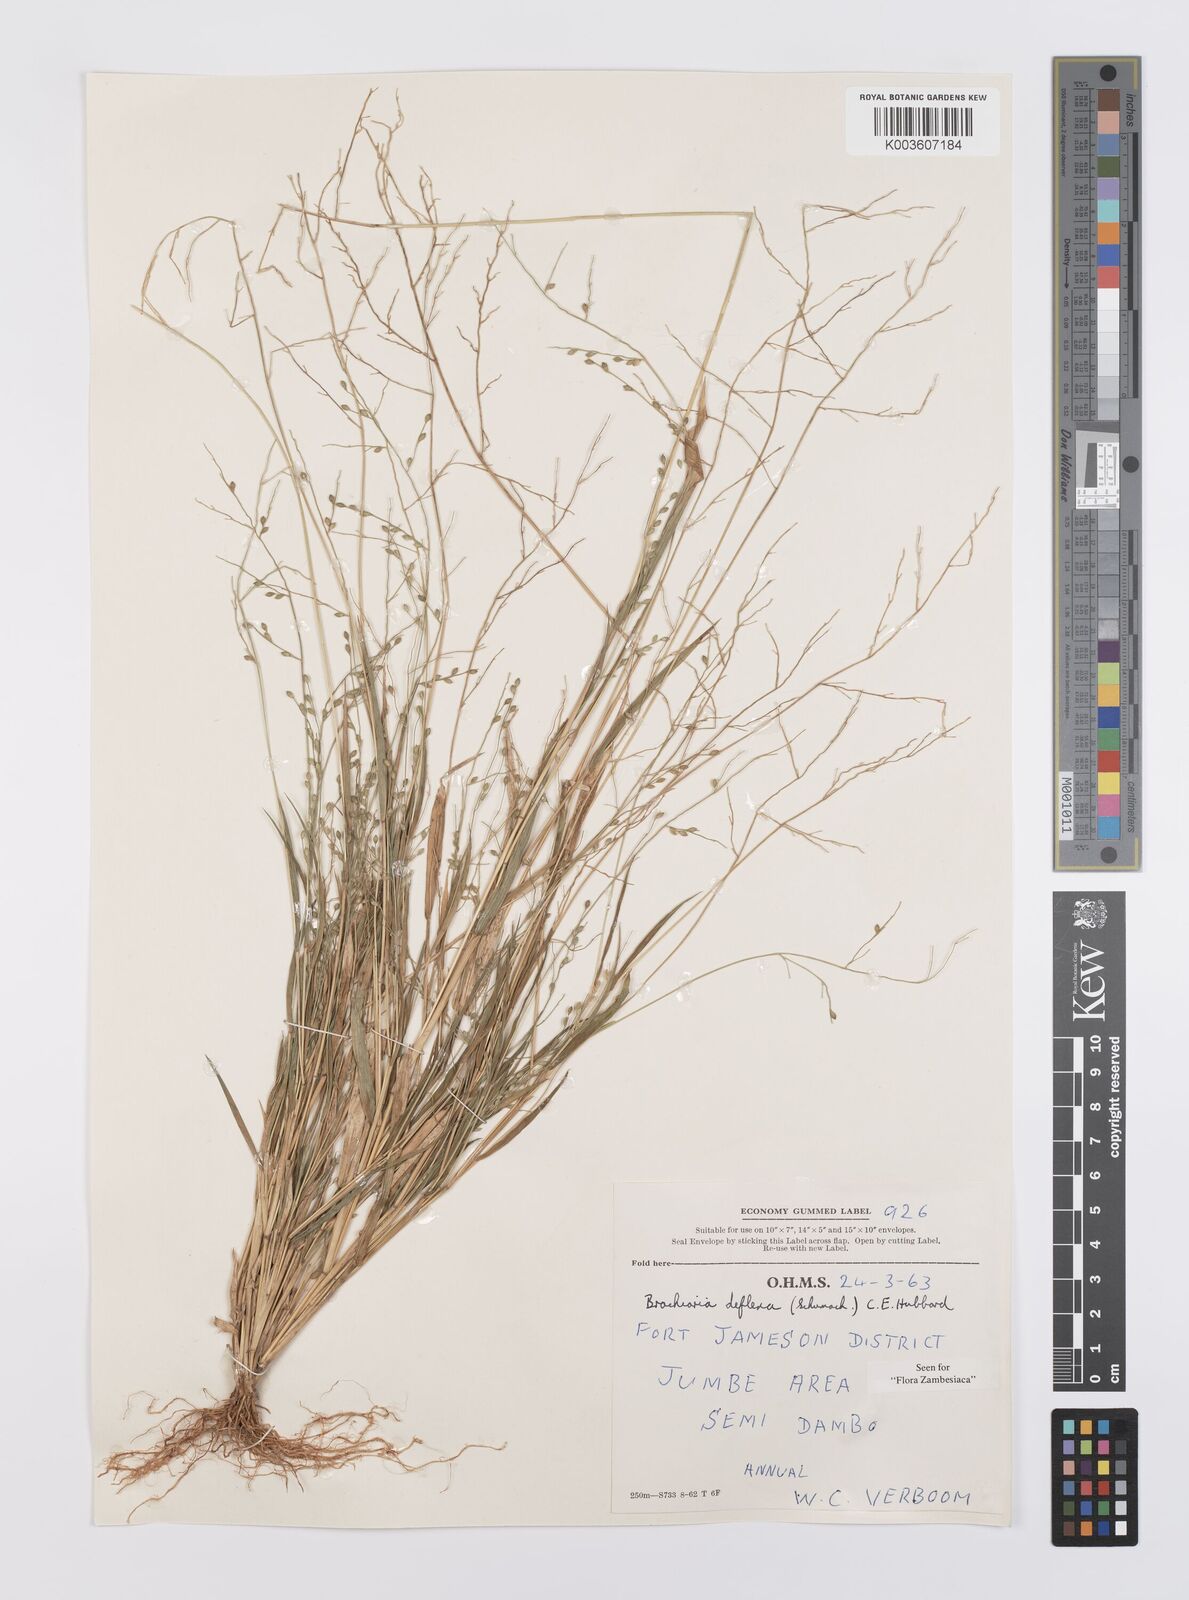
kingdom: Plantae
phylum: Tracheophyta
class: Liliopsida
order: Poales
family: Poaceae
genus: Urochloa
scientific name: Urochloa deflexa
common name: Guinea millet
